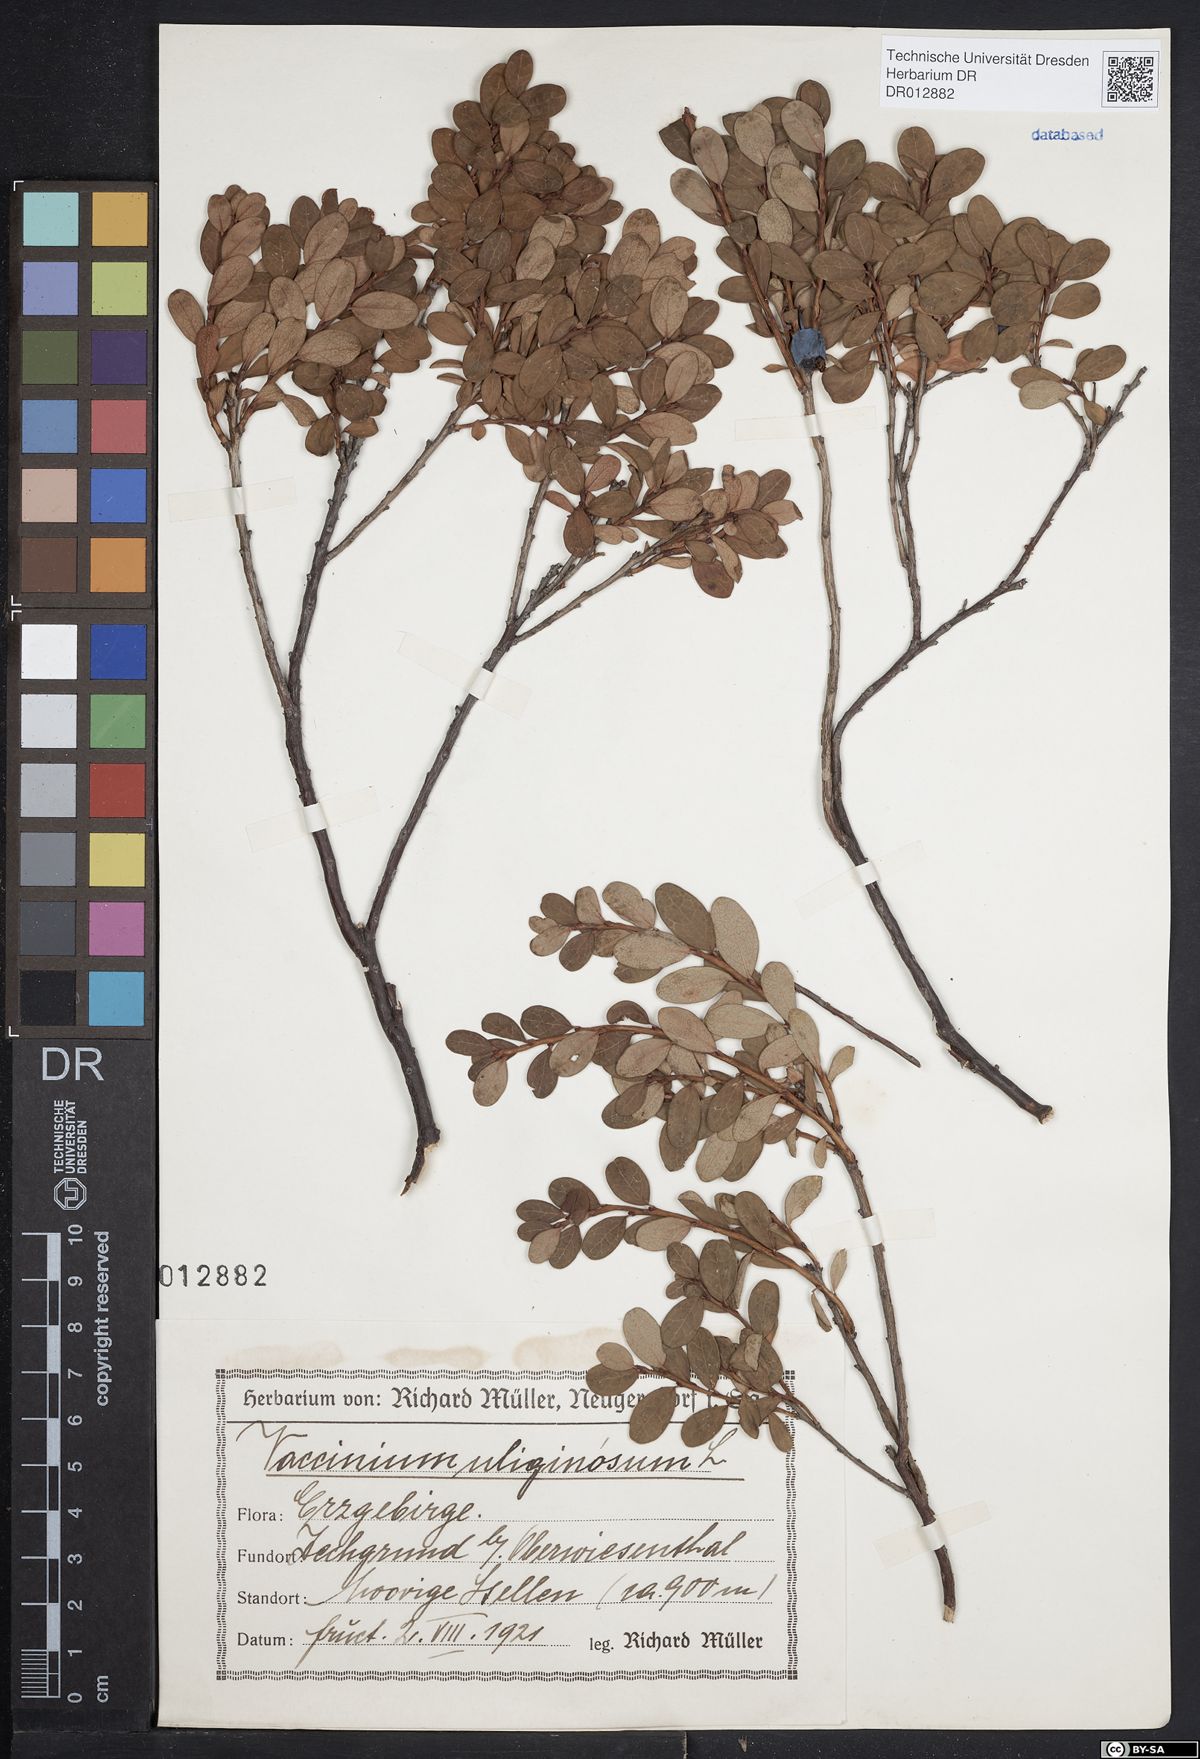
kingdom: Plantae
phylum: Tracheophyta
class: Magnoliopsida
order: Ericales
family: Ericaceae
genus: Vaccinium
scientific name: Vaccinium uliginosum
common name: Bog bilberry
